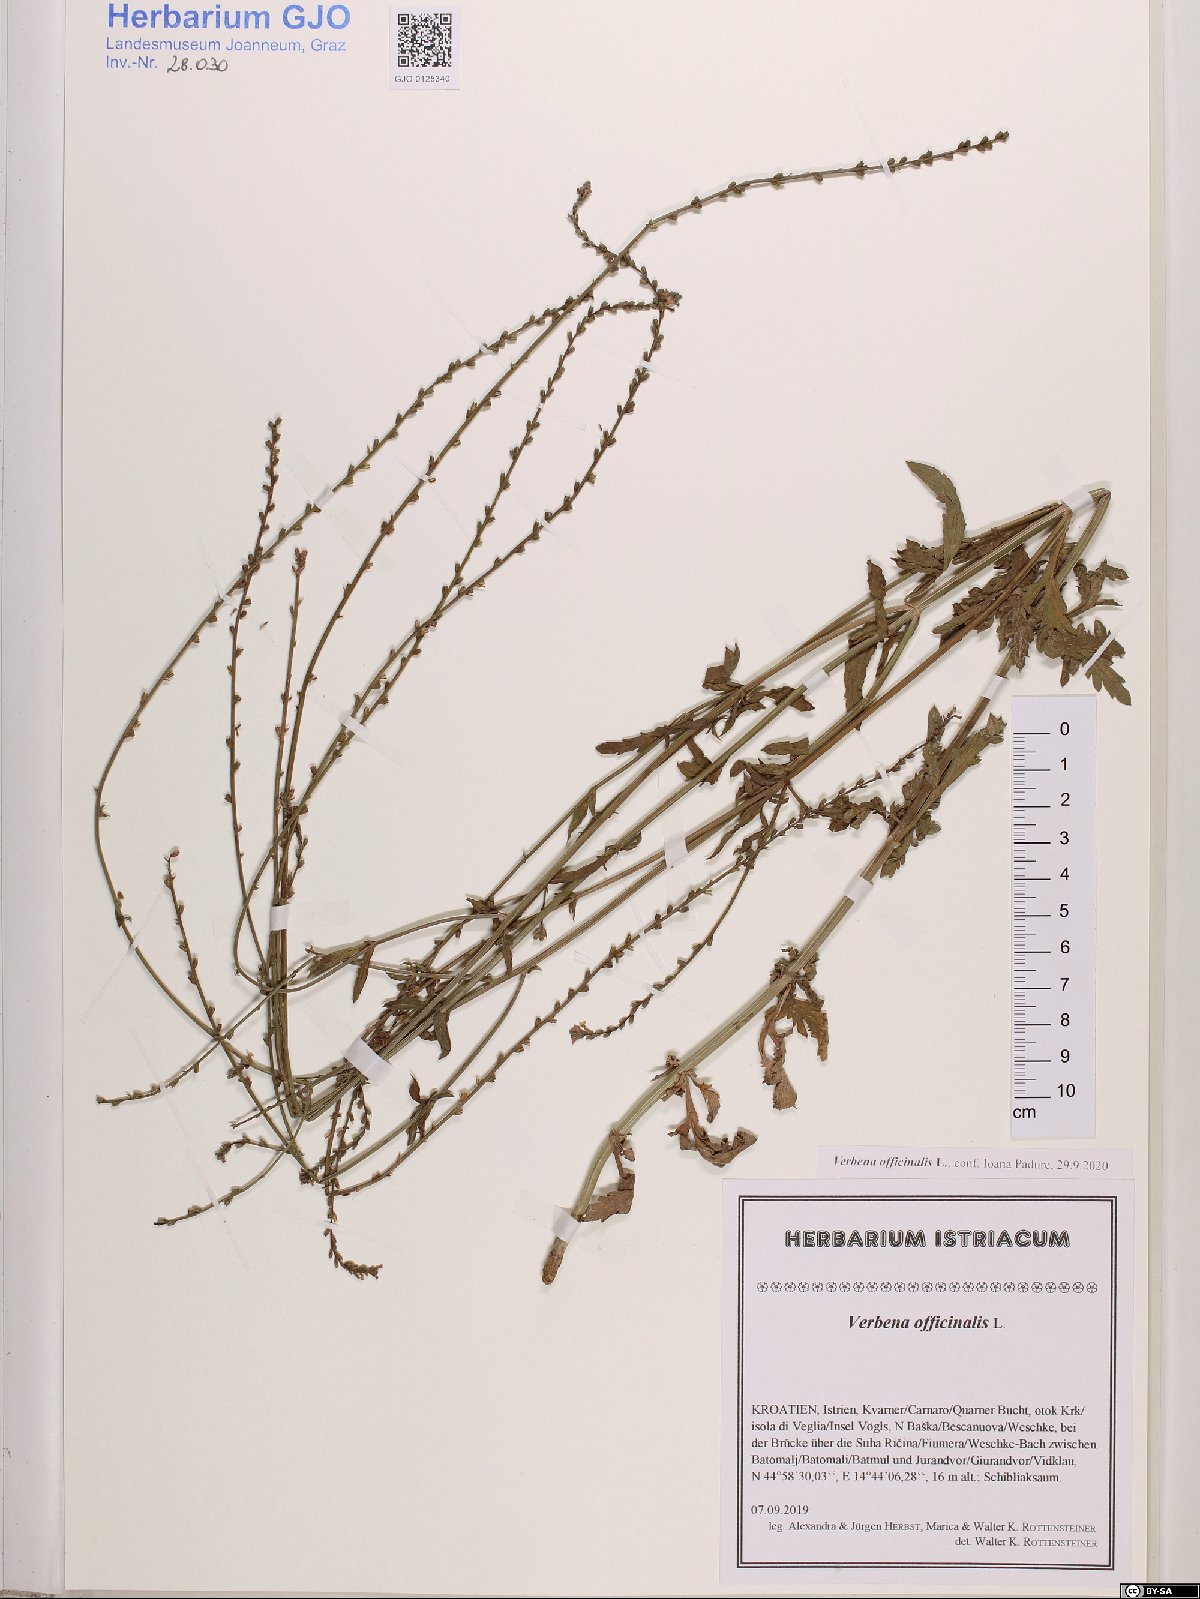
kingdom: Plantae
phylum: Tracheophyta
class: Magnoliopsida
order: Lamiales
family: Verbenaceae
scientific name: Verbenaceae
